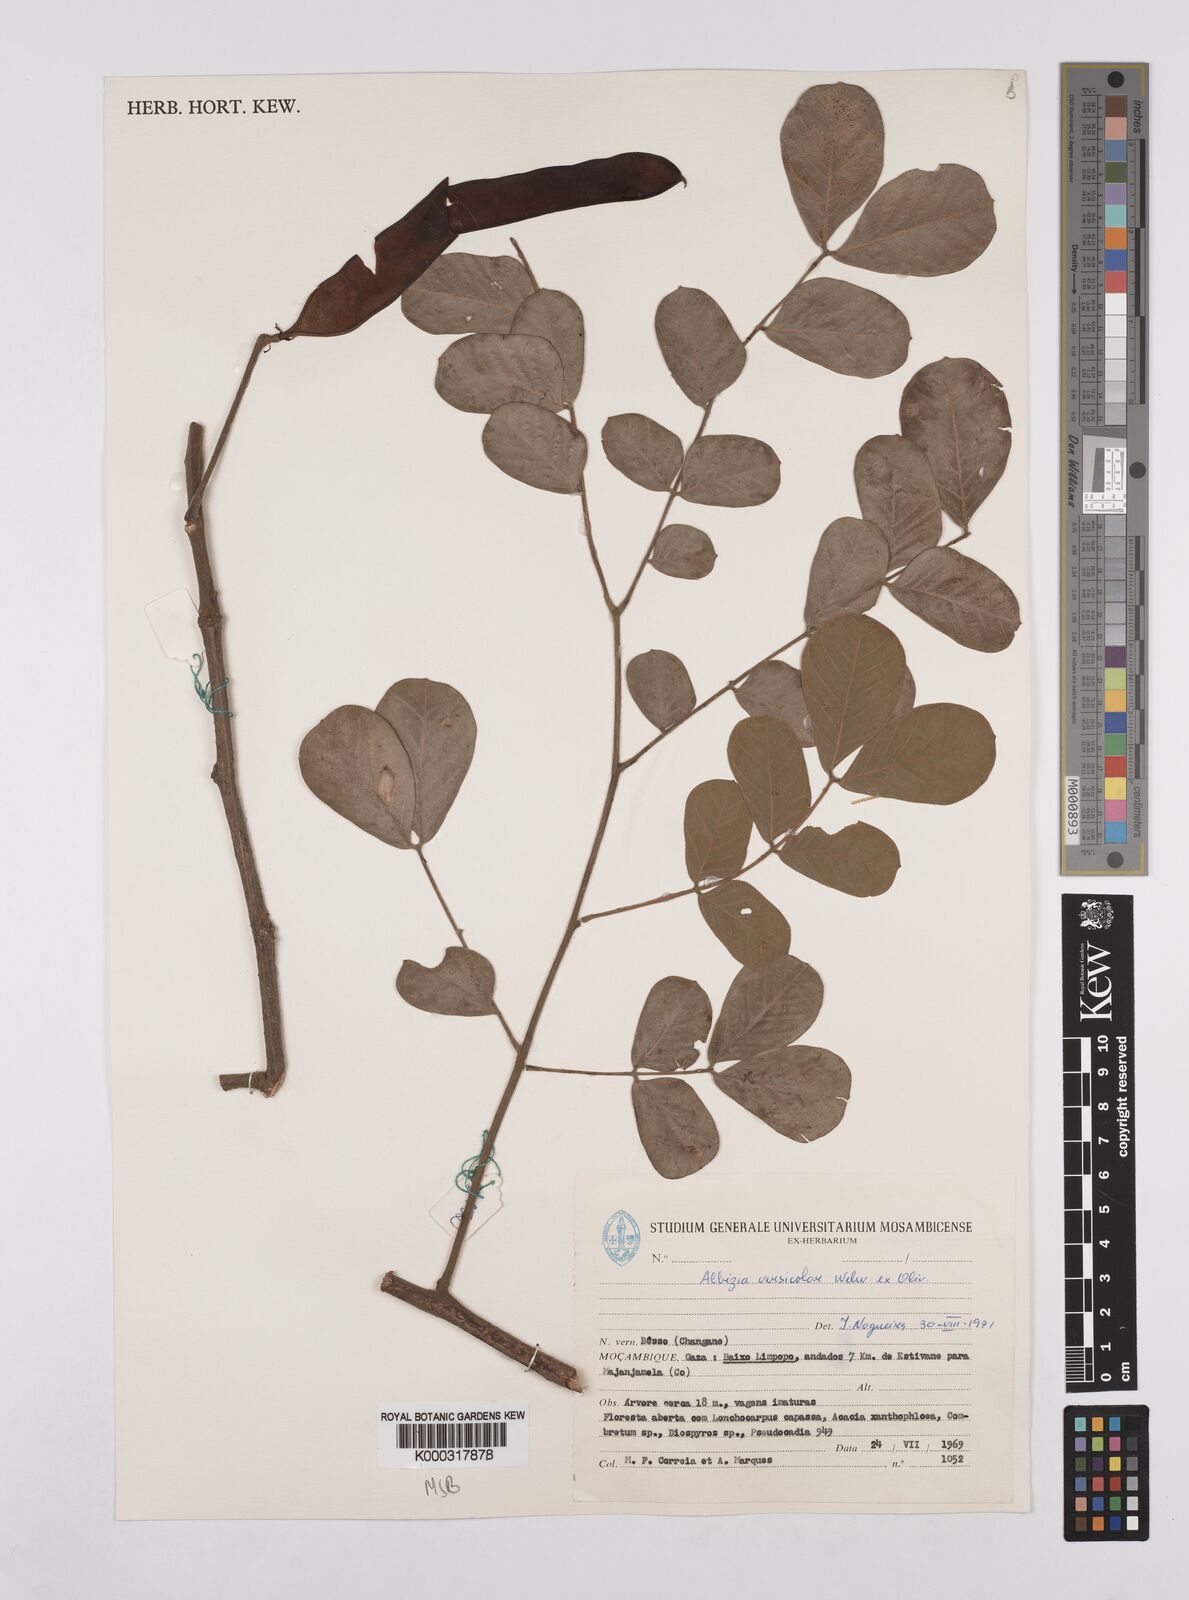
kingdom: Plantae
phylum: Tracheophyta
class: Magnoliopsida
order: Fabales
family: Fabaceae
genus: Albizia
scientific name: Albizia versicolor
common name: Poisonpod
